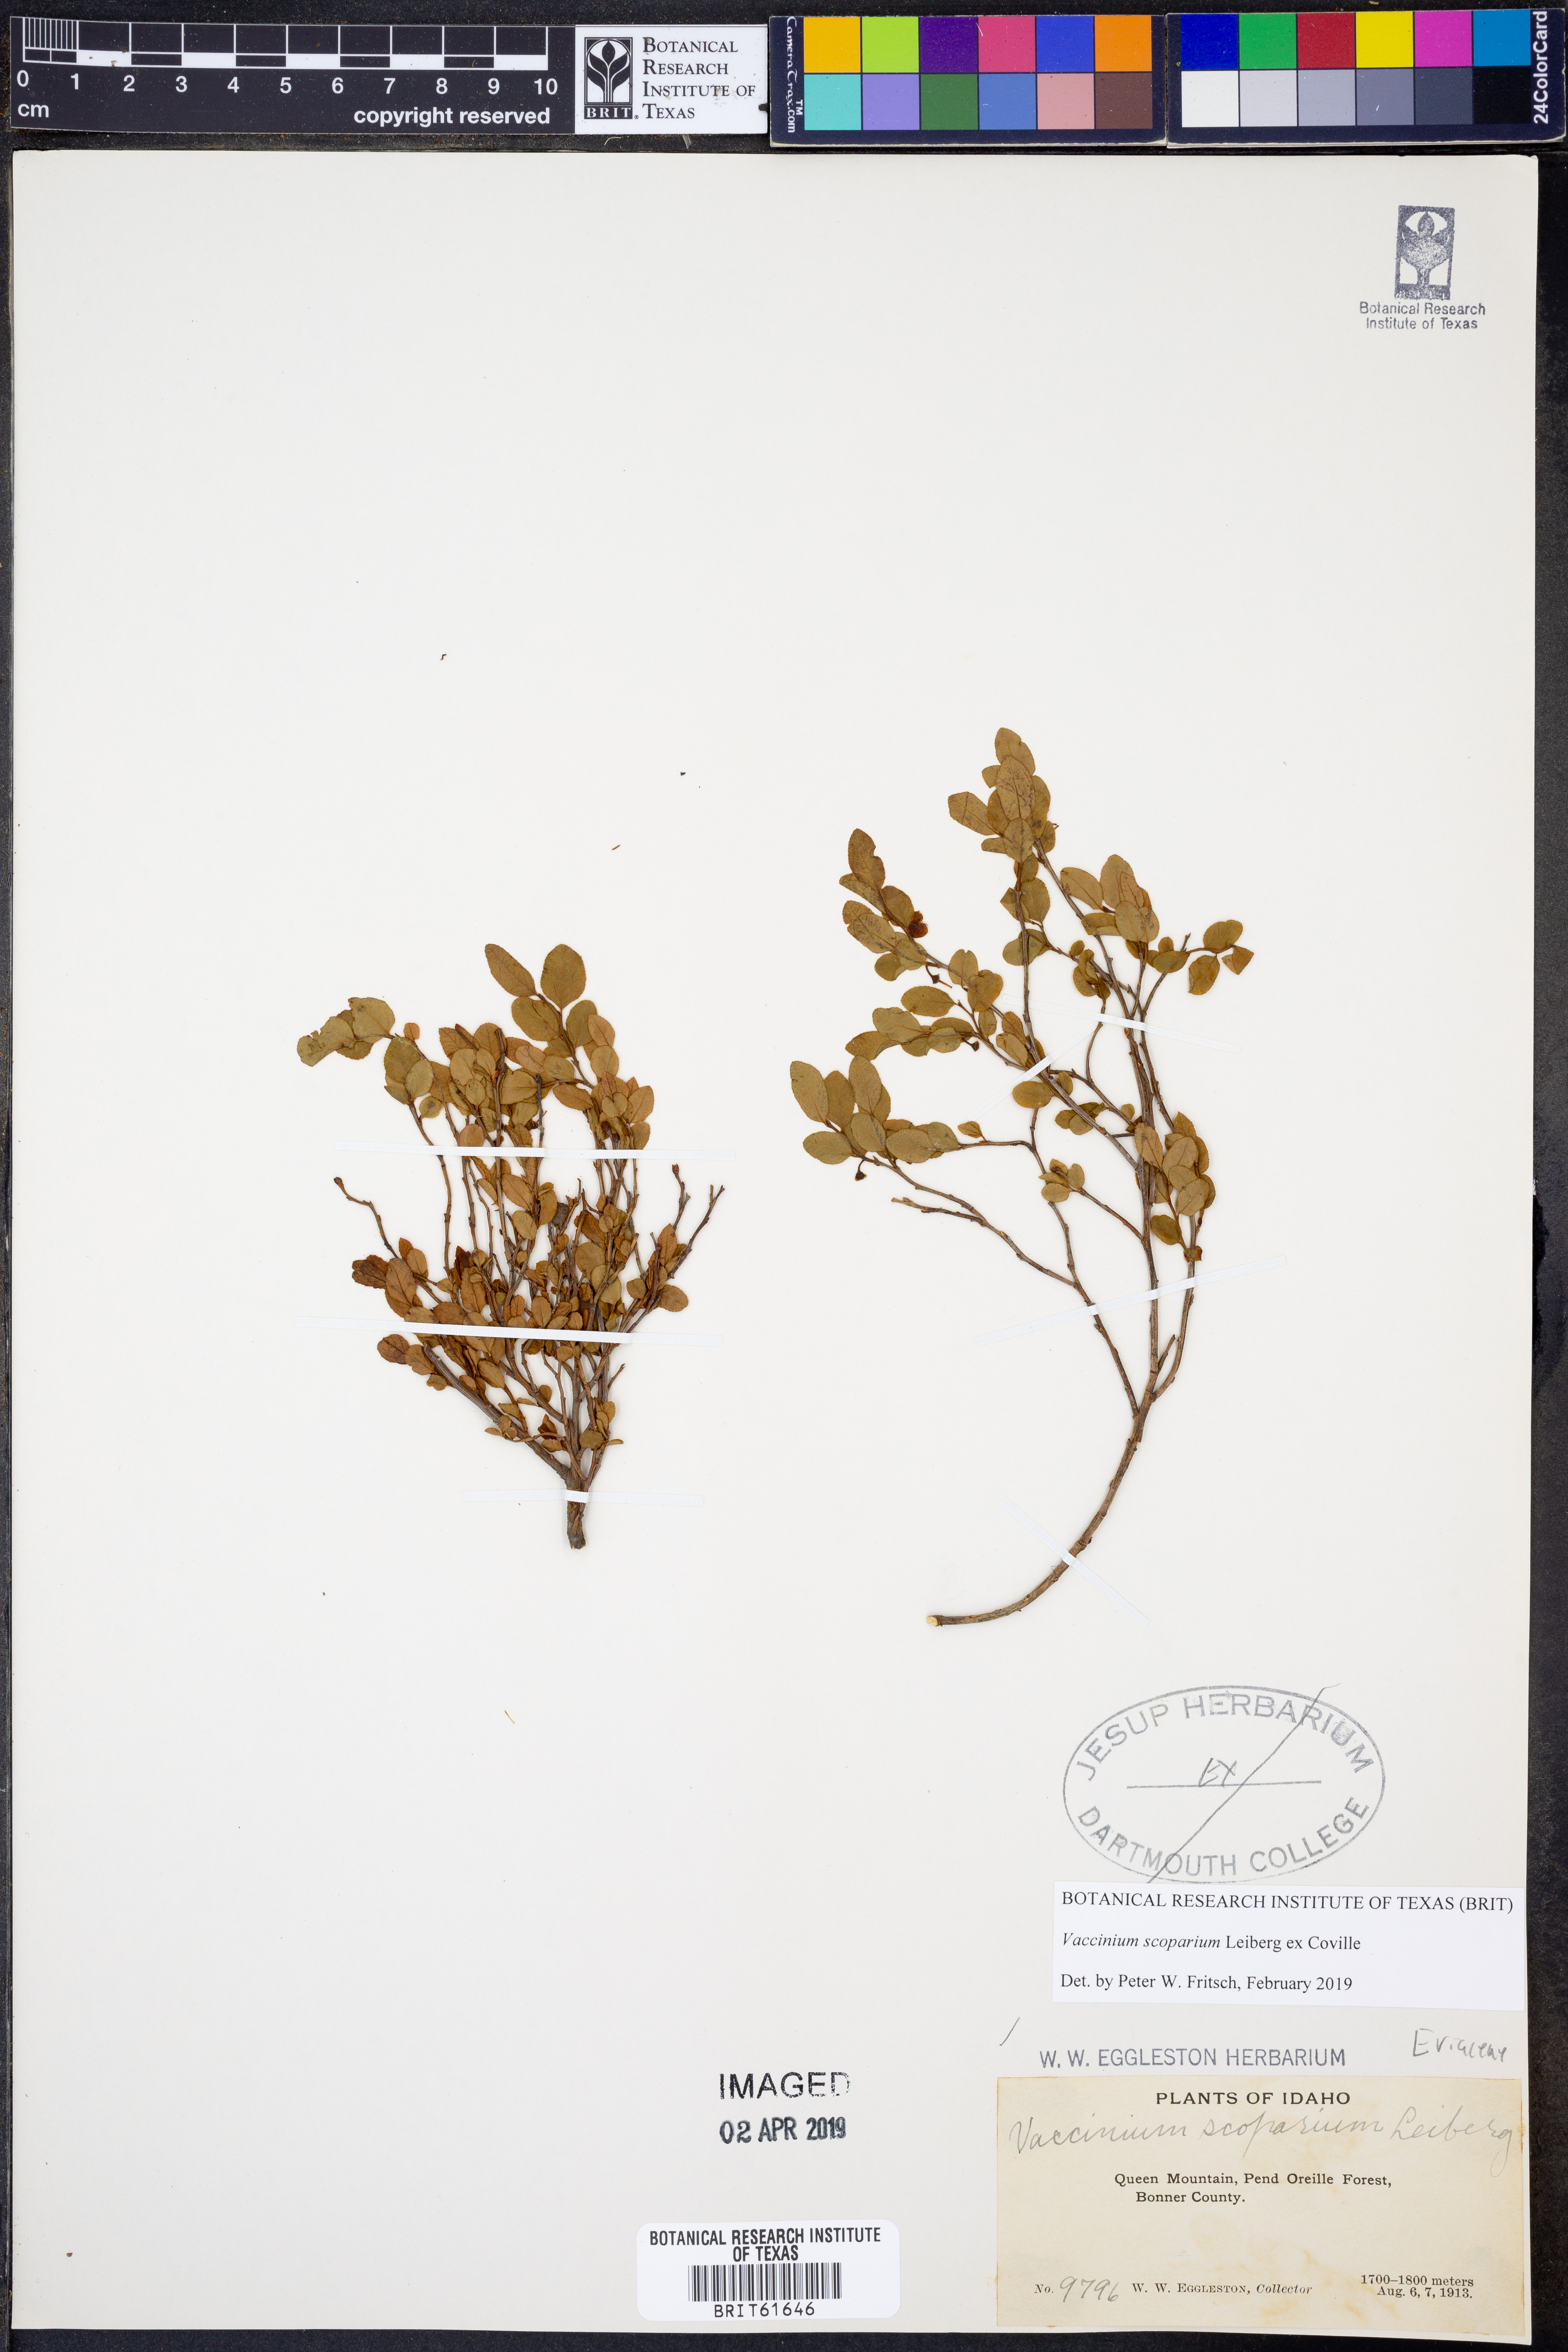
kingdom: Plantae
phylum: Tracheophyta
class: Magnoliopsida
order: Ericales
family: Ericaceae
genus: Vaccinium
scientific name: Vaccinium scoparium
